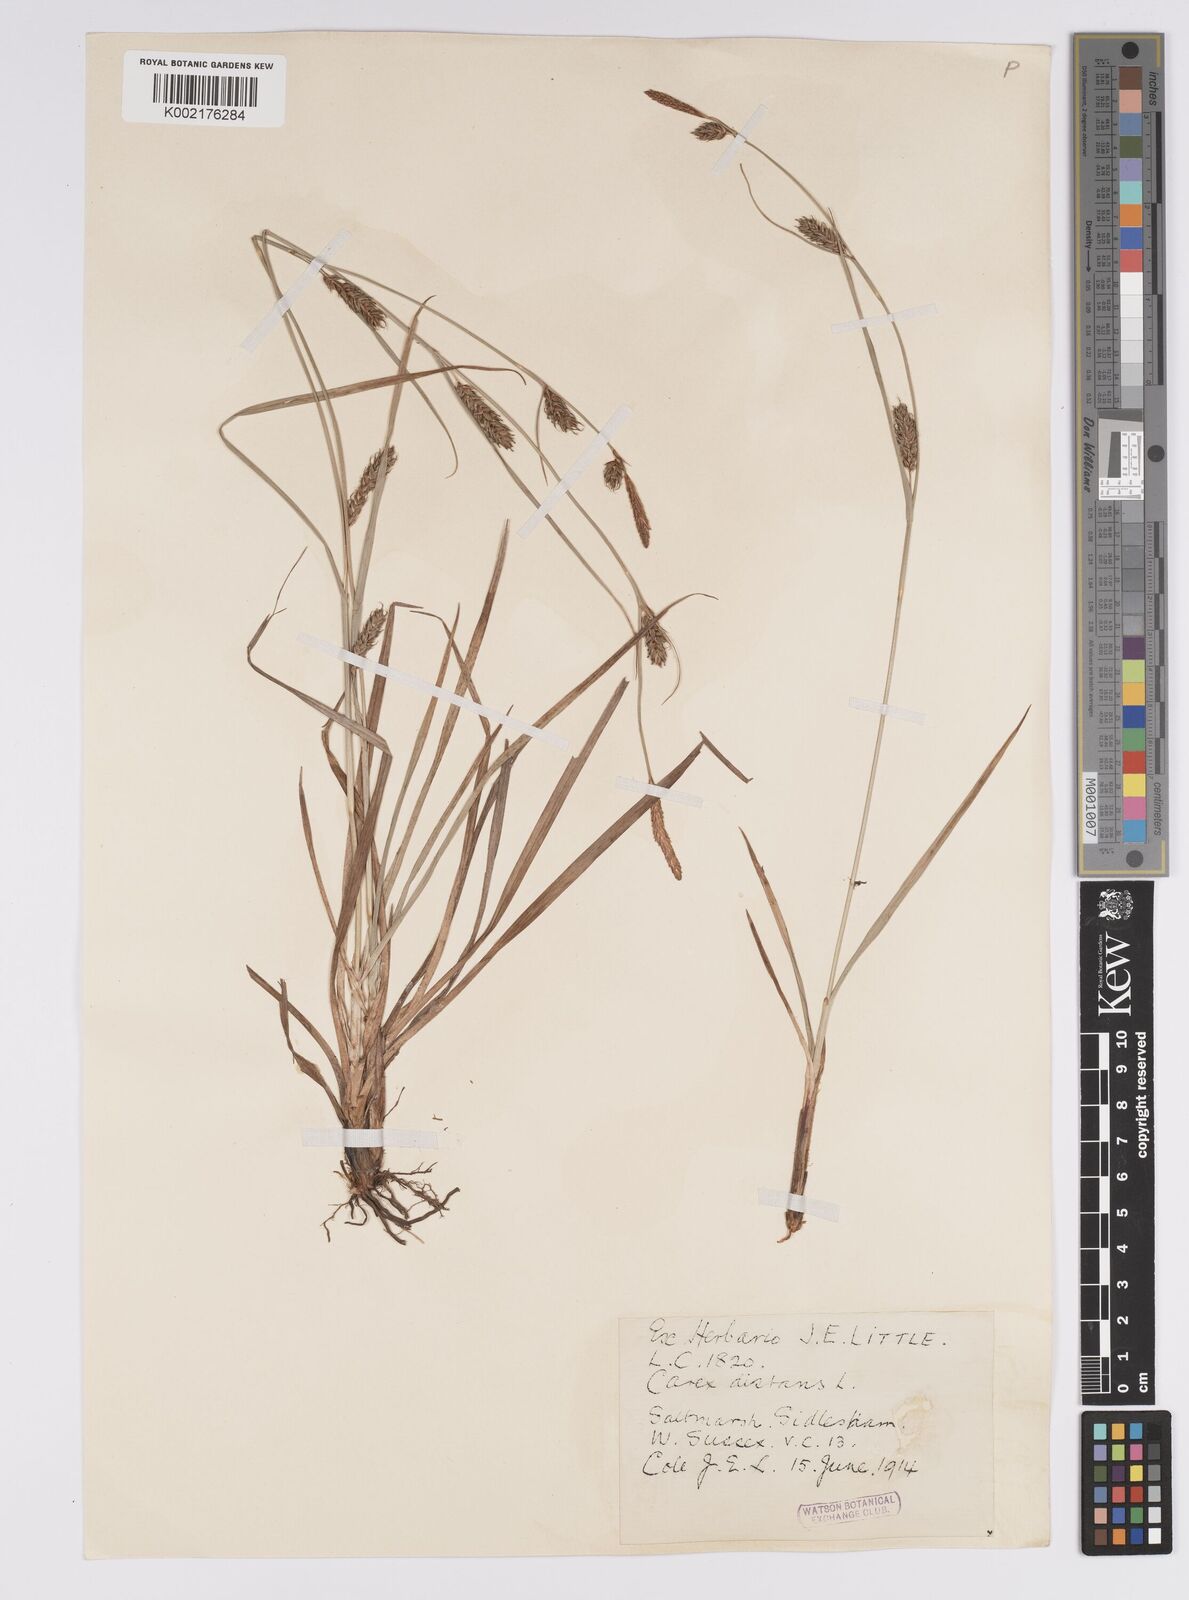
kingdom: Plantae
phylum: Tracheophyta
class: Liliopsida
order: Poales
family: Cyperaceae
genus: Carex
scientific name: Carex distans
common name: Distant sedge
